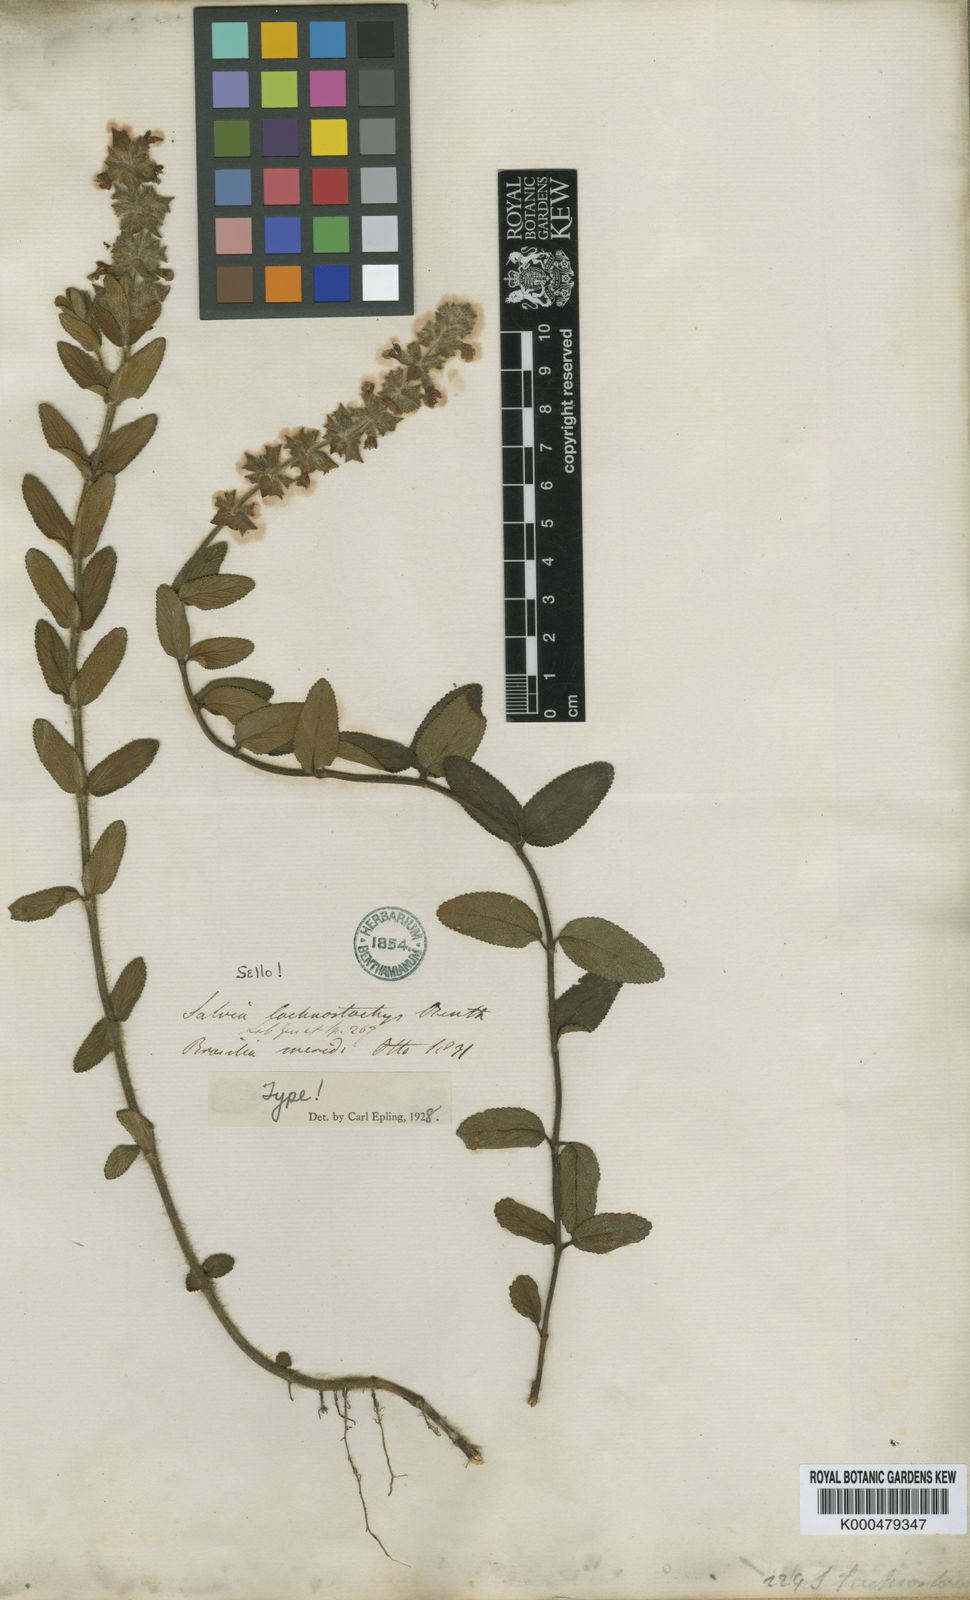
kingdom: Plantae
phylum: Tracheophyta
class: Magnoliopsida
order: Lamiales
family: Lamiaceae
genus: Salvia
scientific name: Salvia lachnostachys
